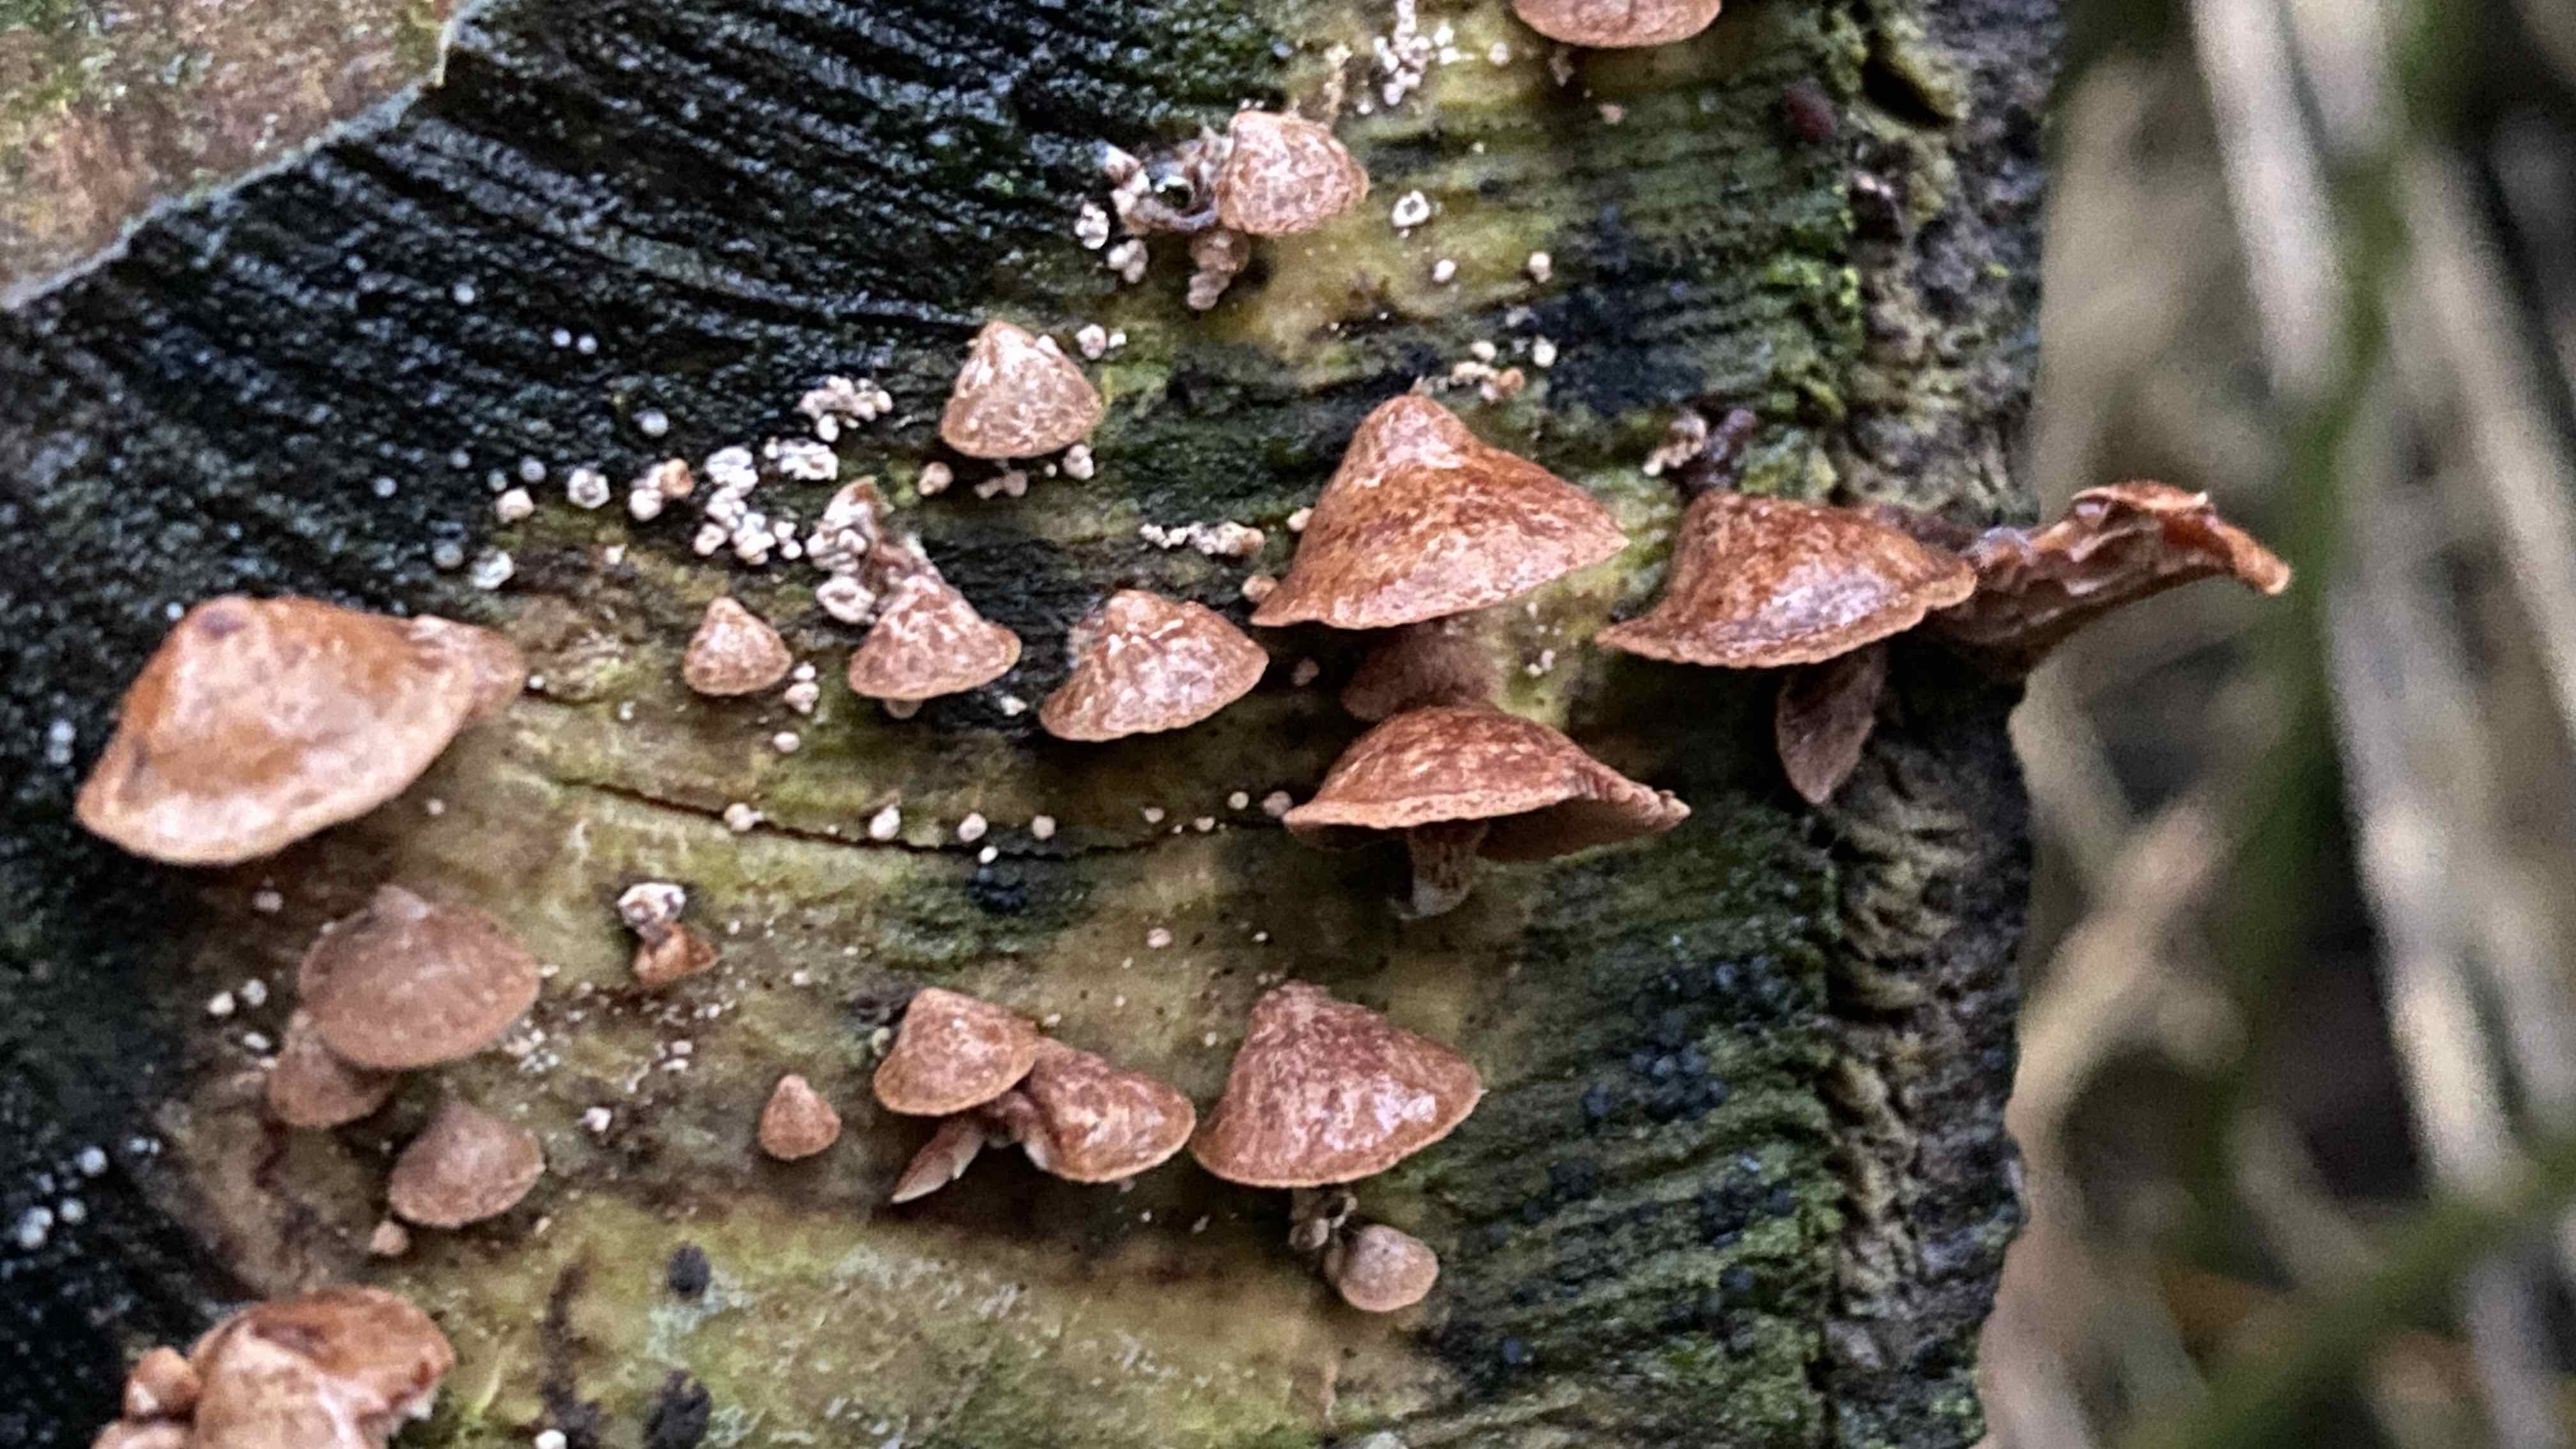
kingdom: Fungi
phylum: Basidiomycota
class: Agaricomycetes
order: Agaricales
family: Strophariaceae
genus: Deconica
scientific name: Deconica horizontalis
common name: ved-stråhat
